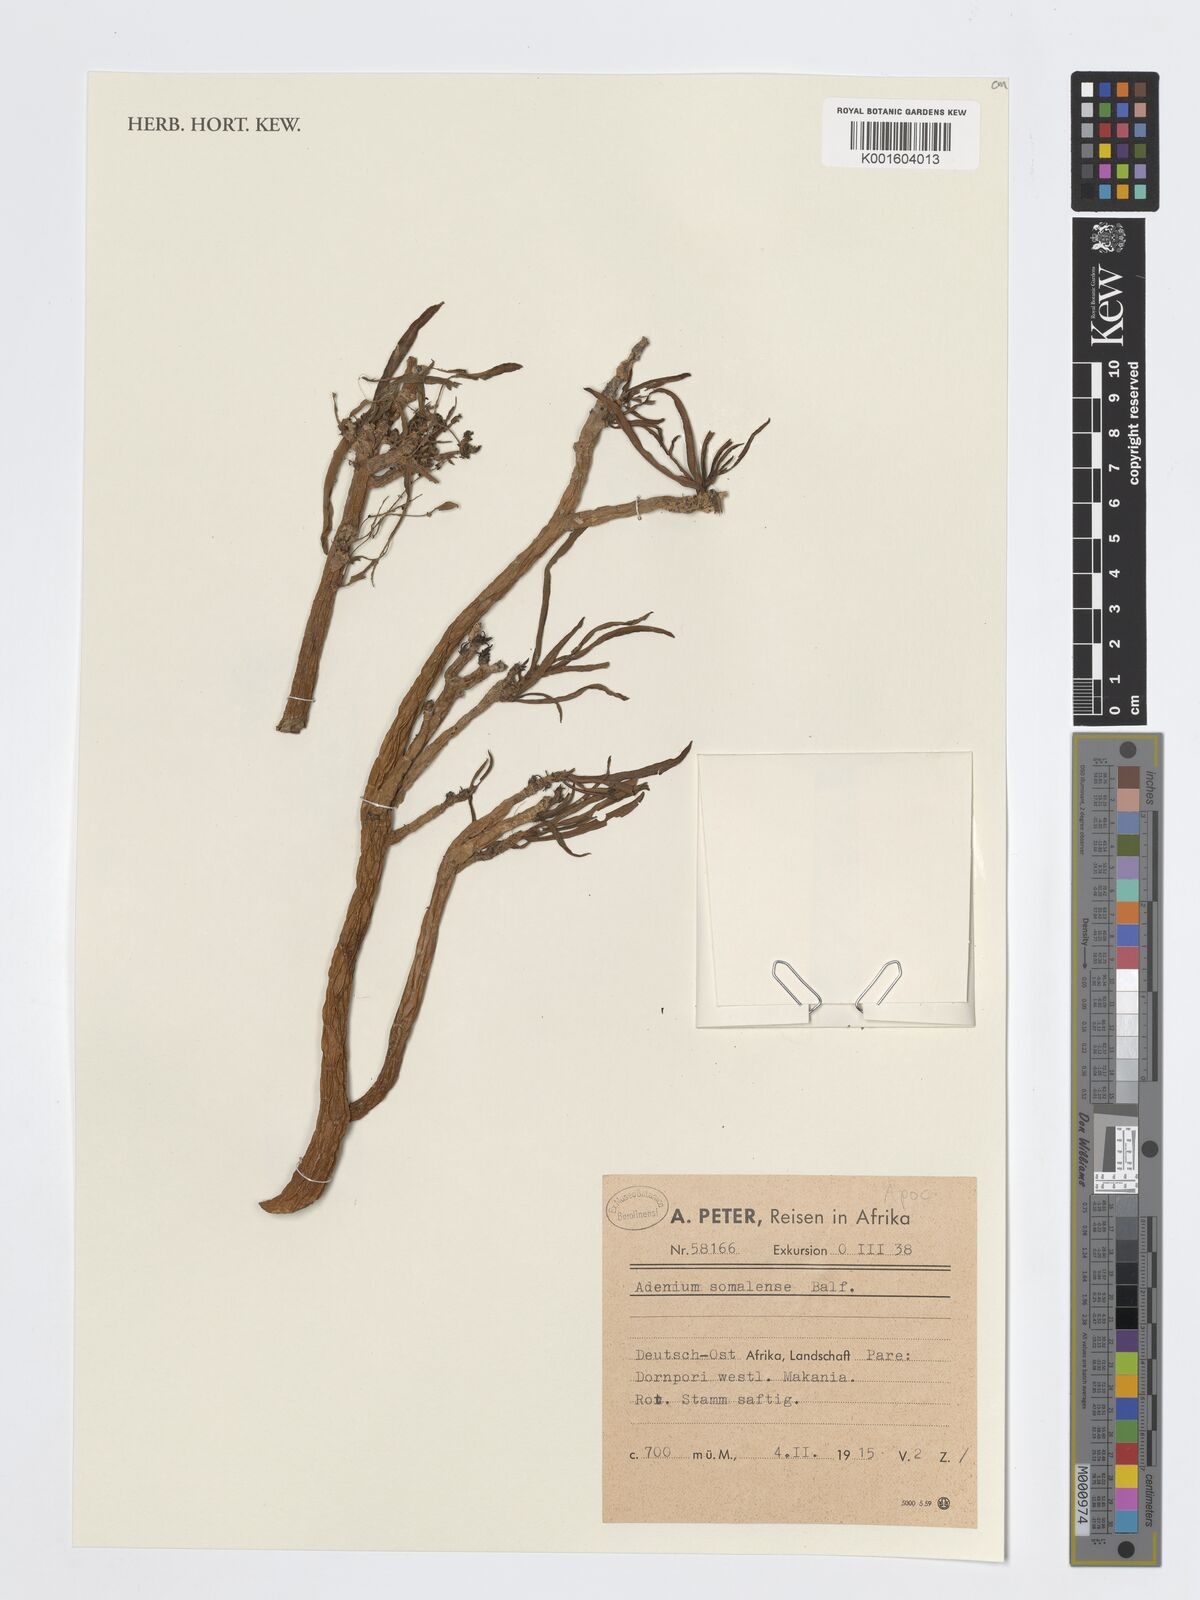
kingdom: Plantae
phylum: Tracheophyta
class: Magnoliopsida
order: Gentianales
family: Apocynaceae
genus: Adenium
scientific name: Adenium obesum
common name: Desert-rose
